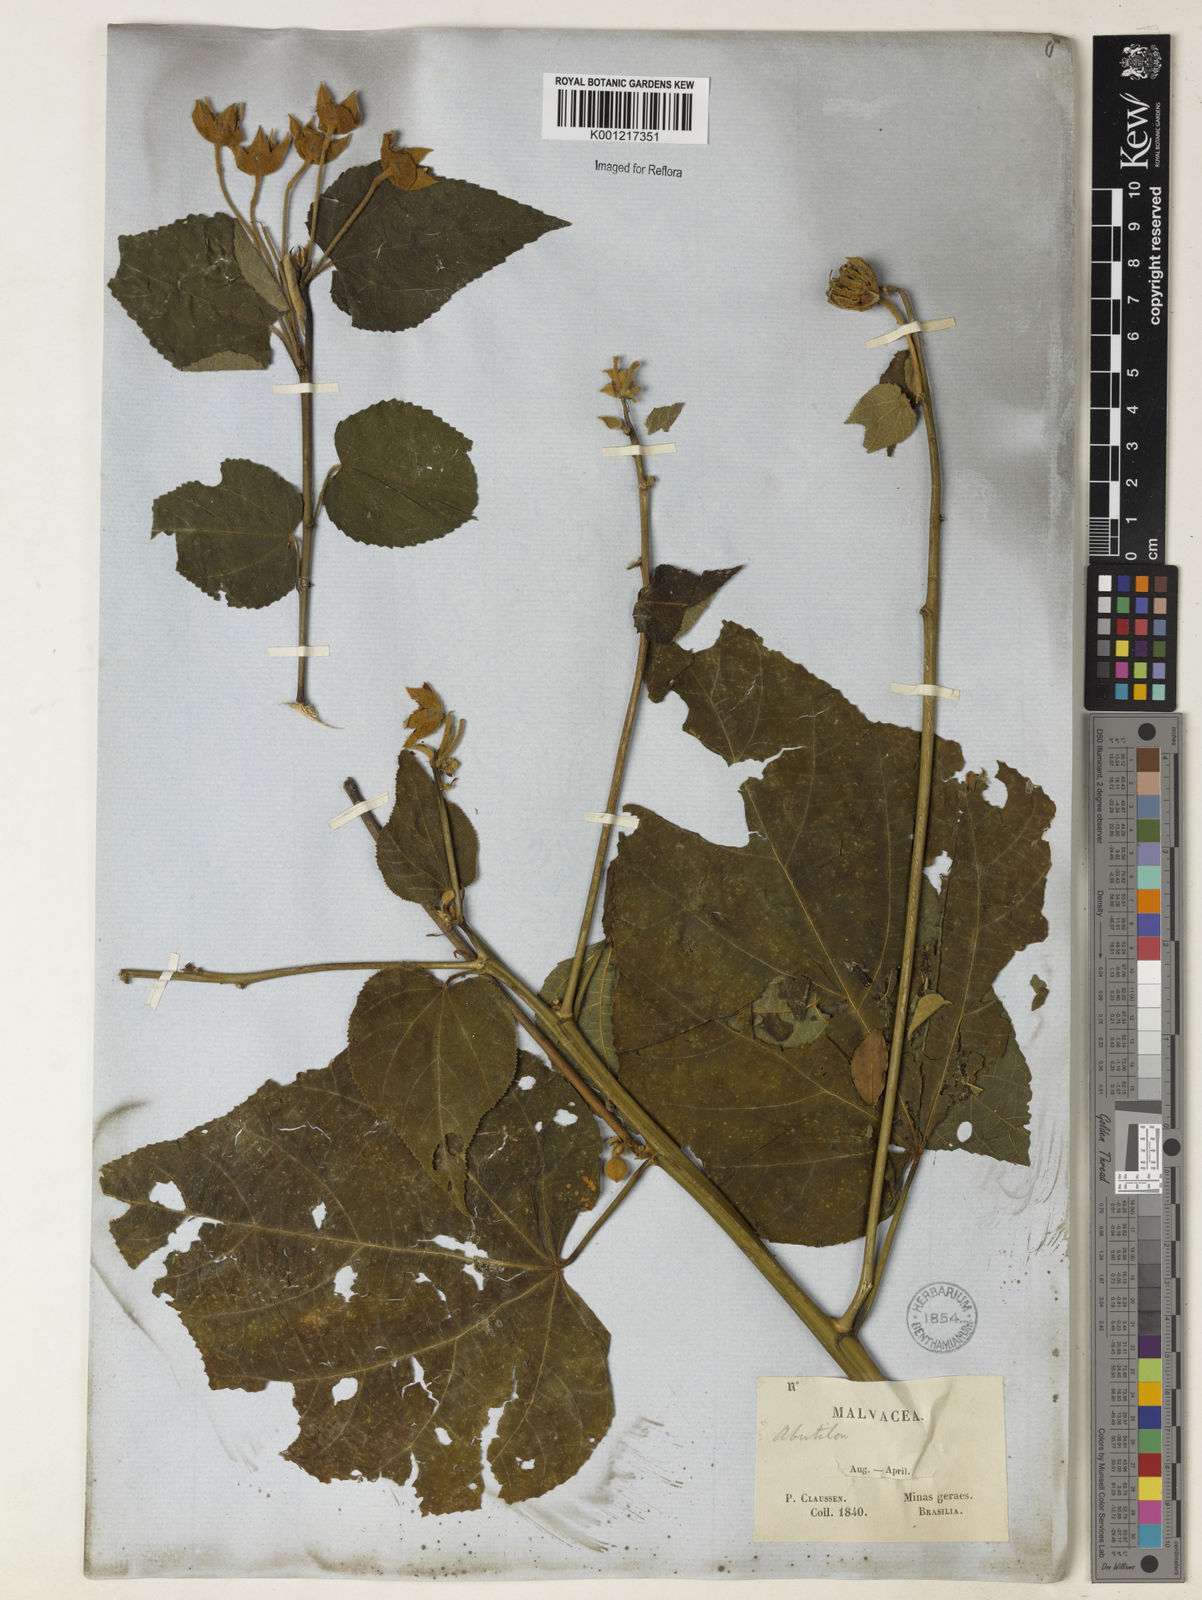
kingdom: Plantae
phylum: Tracheophyta
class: Magnoliopsida
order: Malvales
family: Malvaceae
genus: Bakeridesia
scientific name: Bakeridesia esculenta
